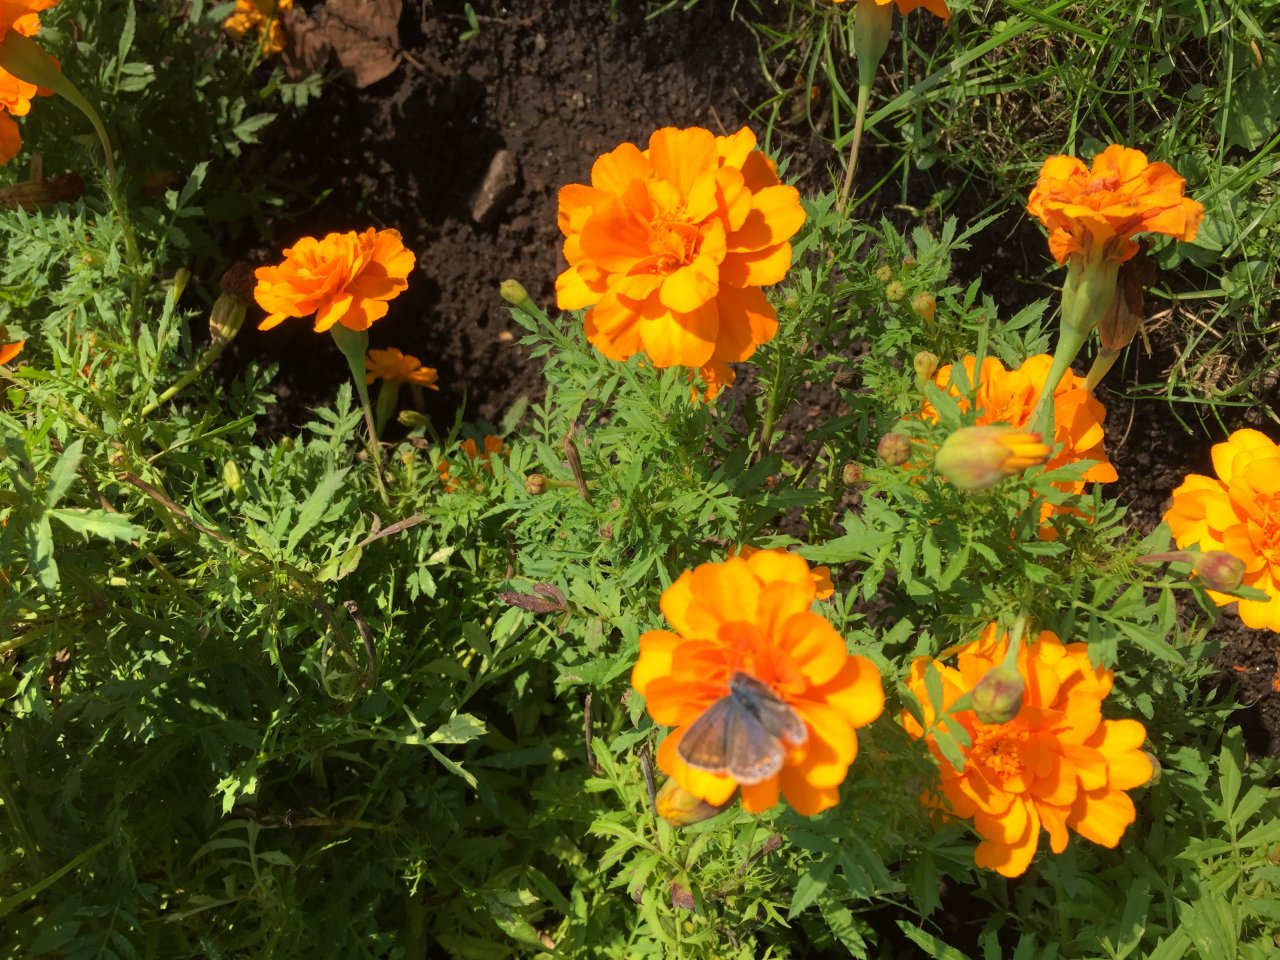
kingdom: Animalia
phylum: Arthropoda
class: Insecta
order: Lepidoptera
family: Lycaenidae
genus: Polyommatus
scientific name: Polyommatus icarus
